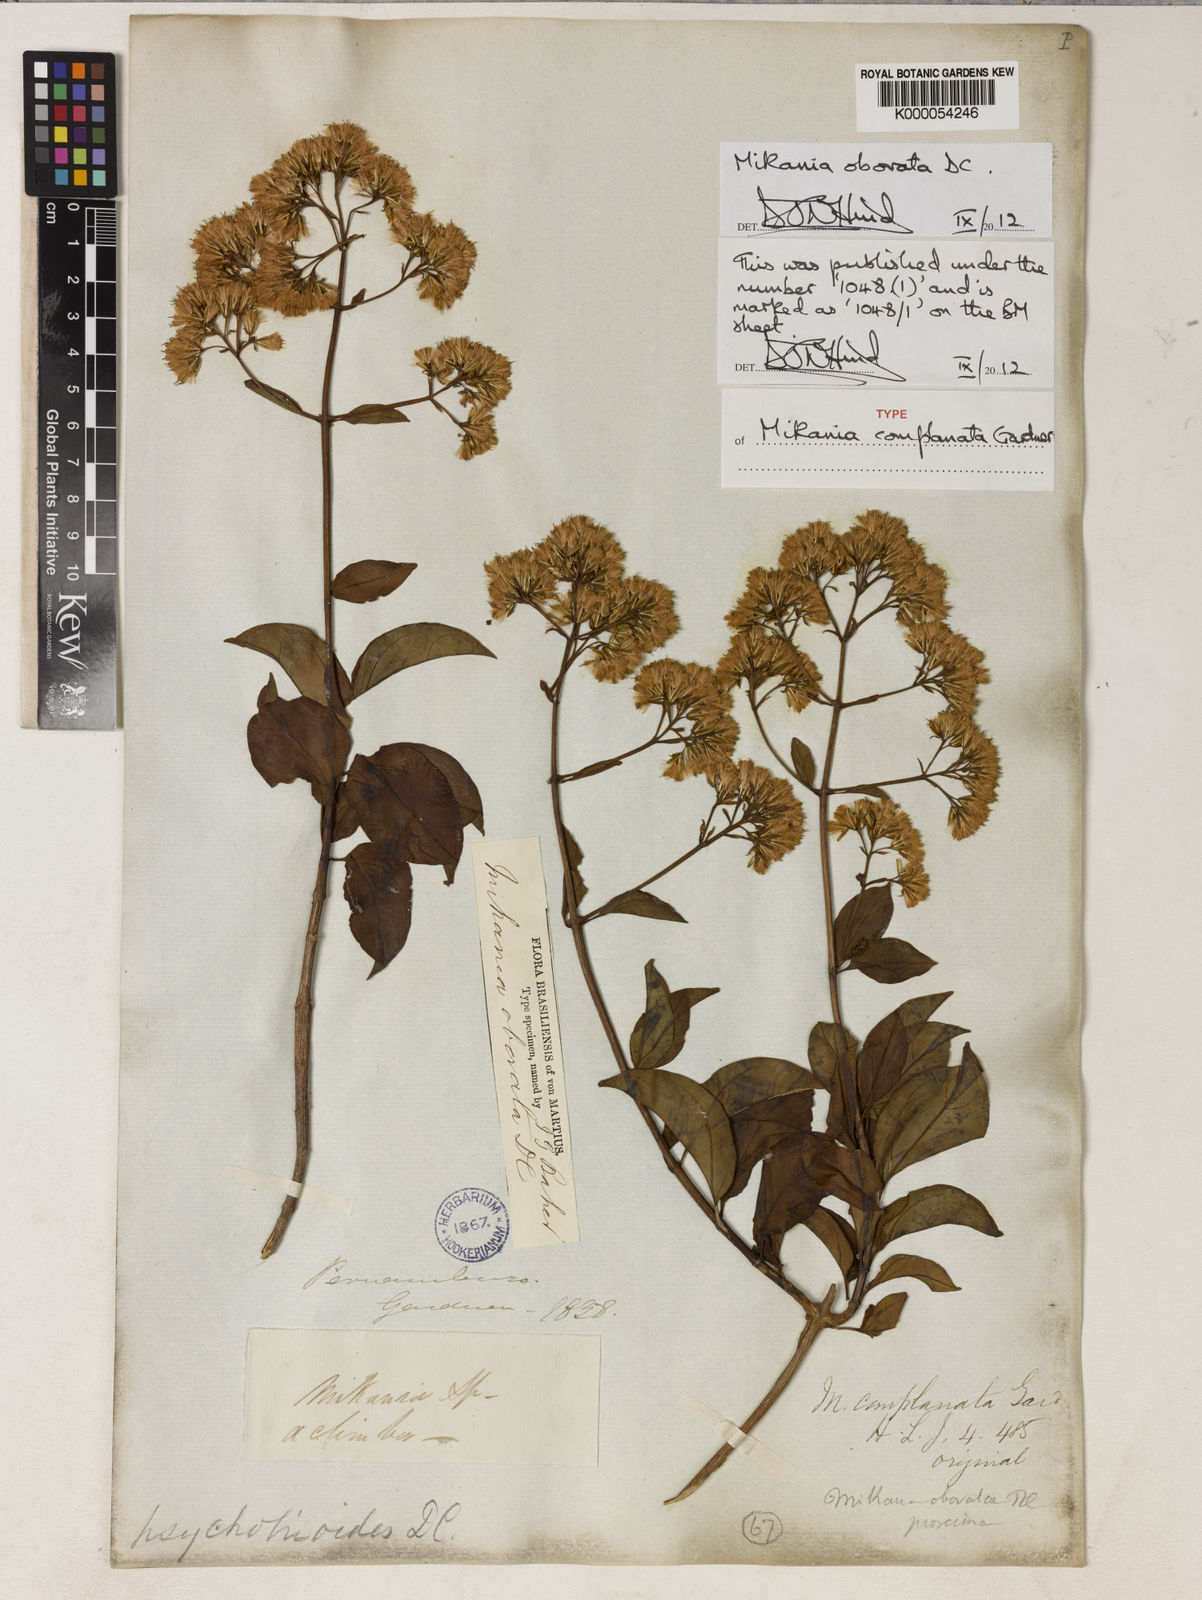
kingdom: Plantae
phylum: Tracheophyta
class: Magnoliopsida
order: Asterales
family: Asteraceae
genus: Mikania
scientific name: Mikania obovata
